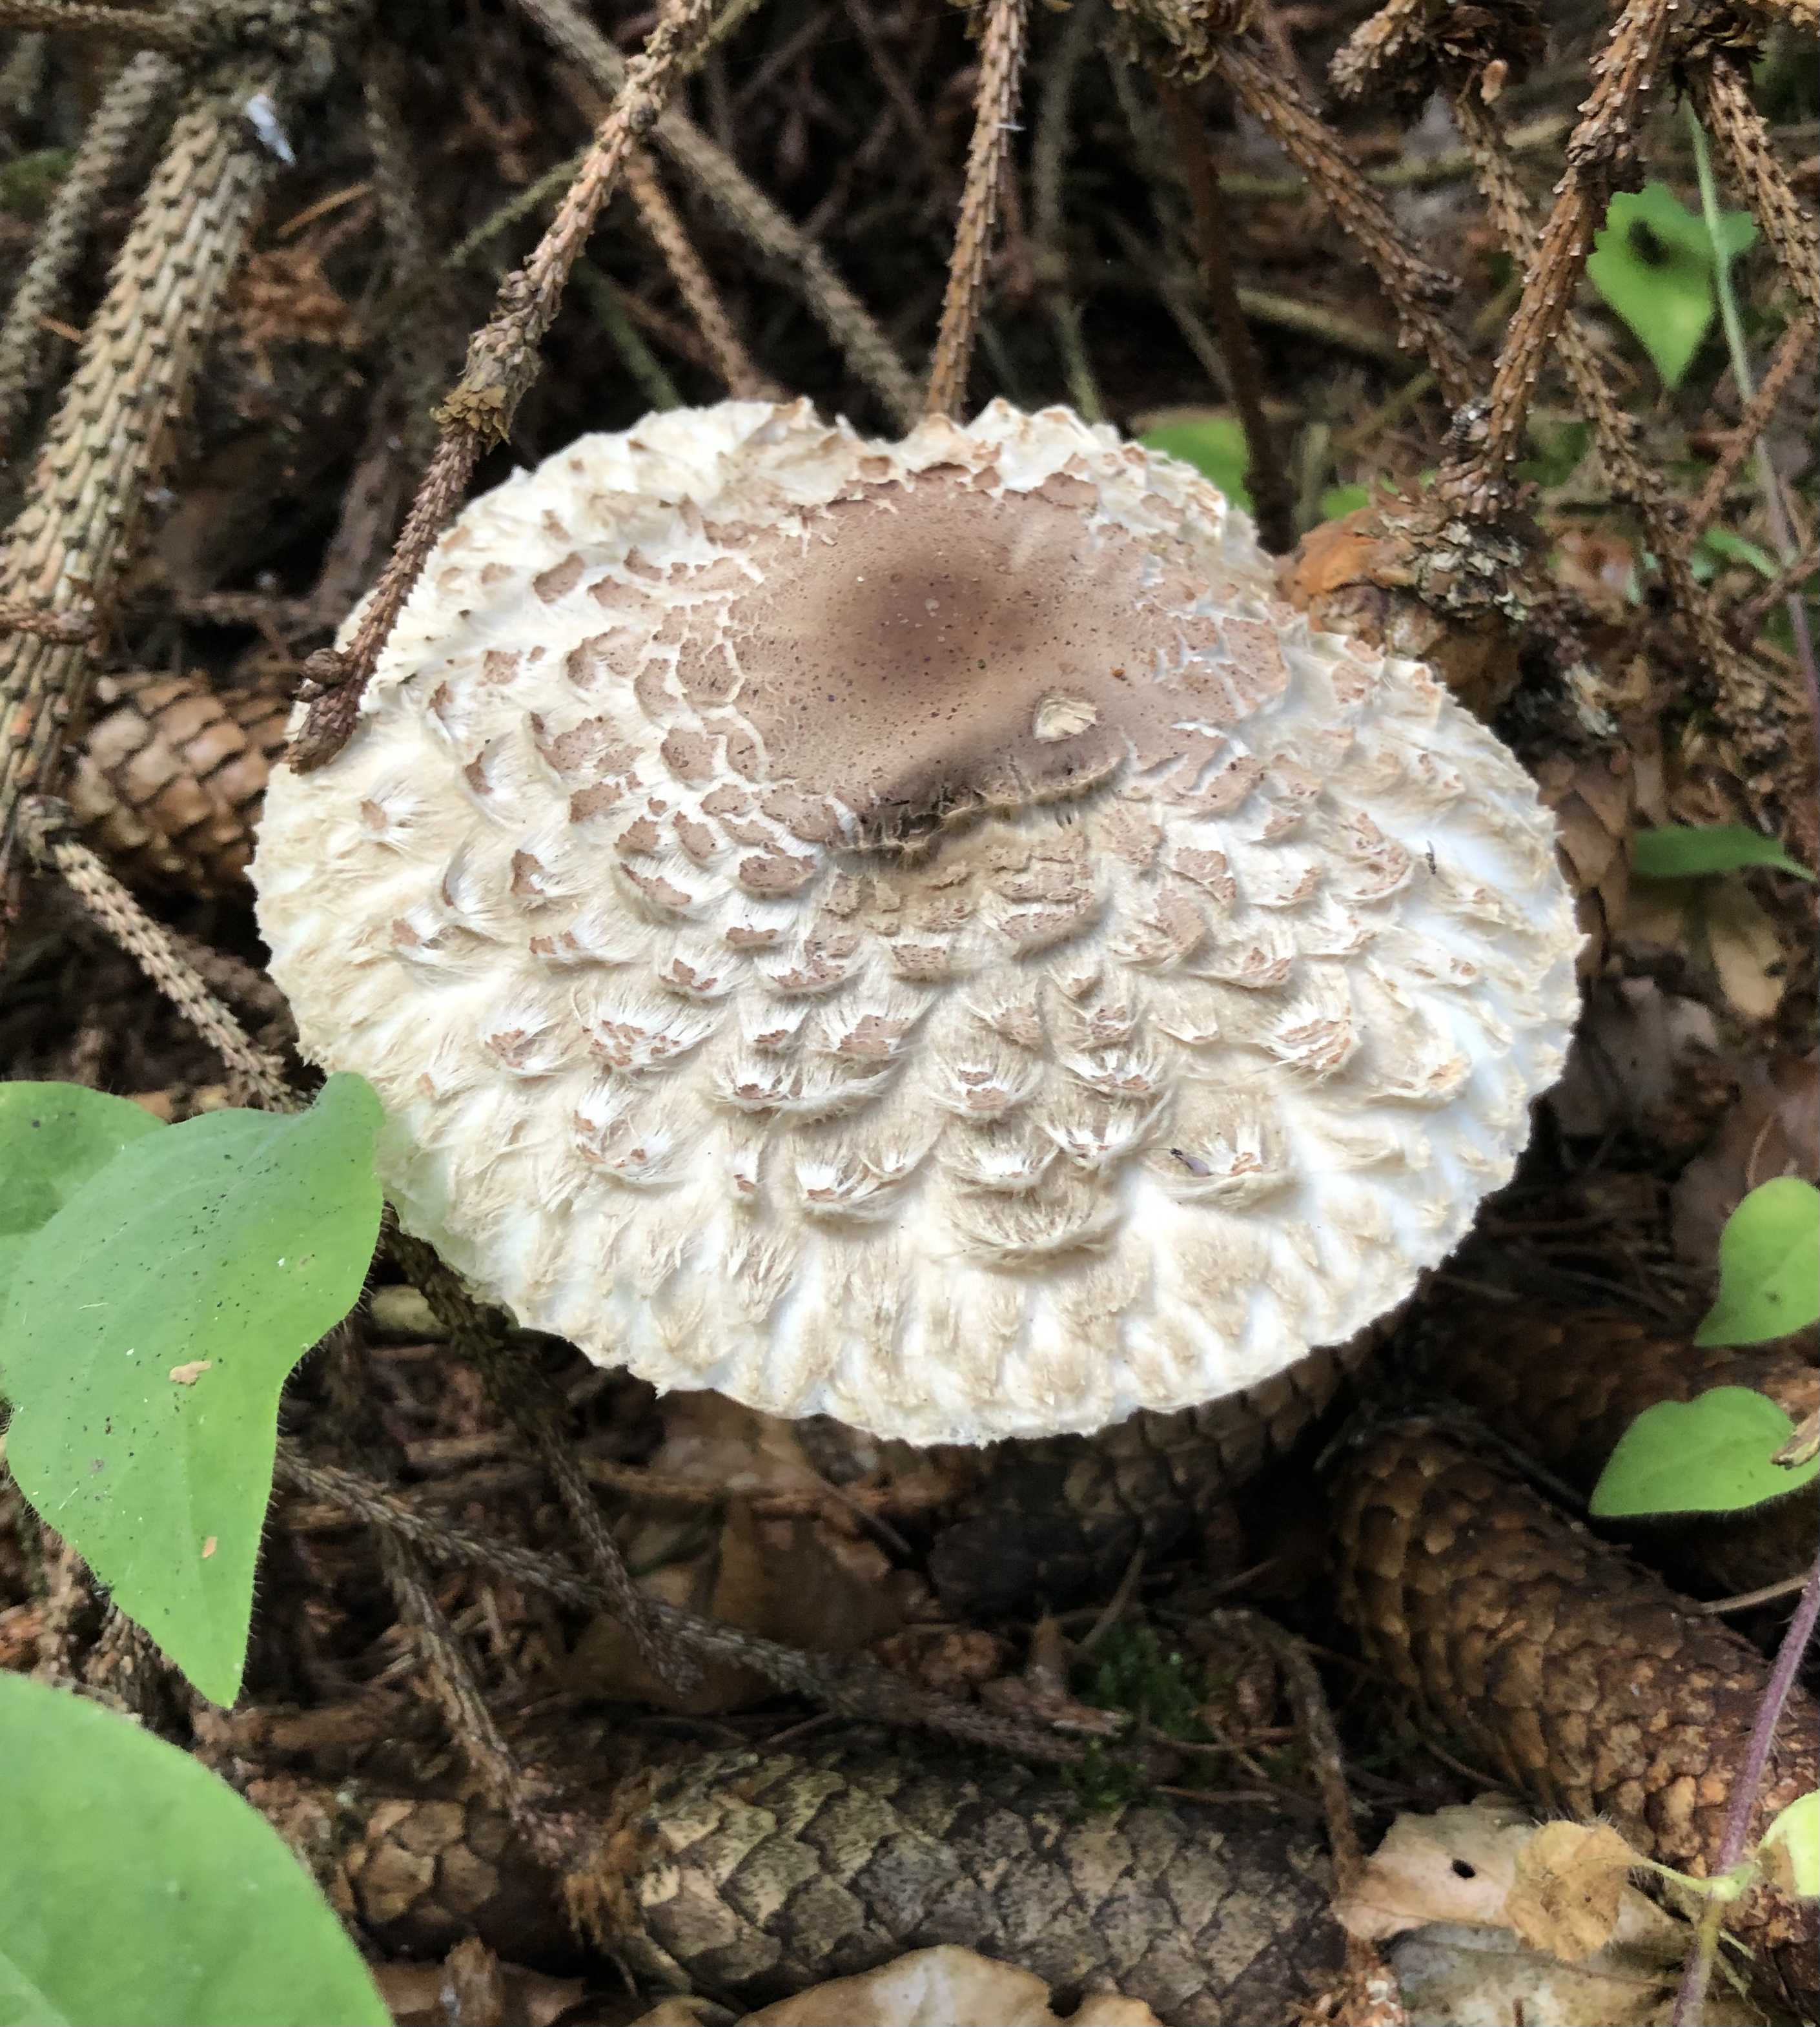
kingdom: Fungi
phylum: Basidiomycota
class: Agaricomycetes
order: Agaricales
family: Agaricaceae
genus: Chlorophyllum
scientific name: Chlorophyllum olivieri
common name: almindelig rabarberhat
